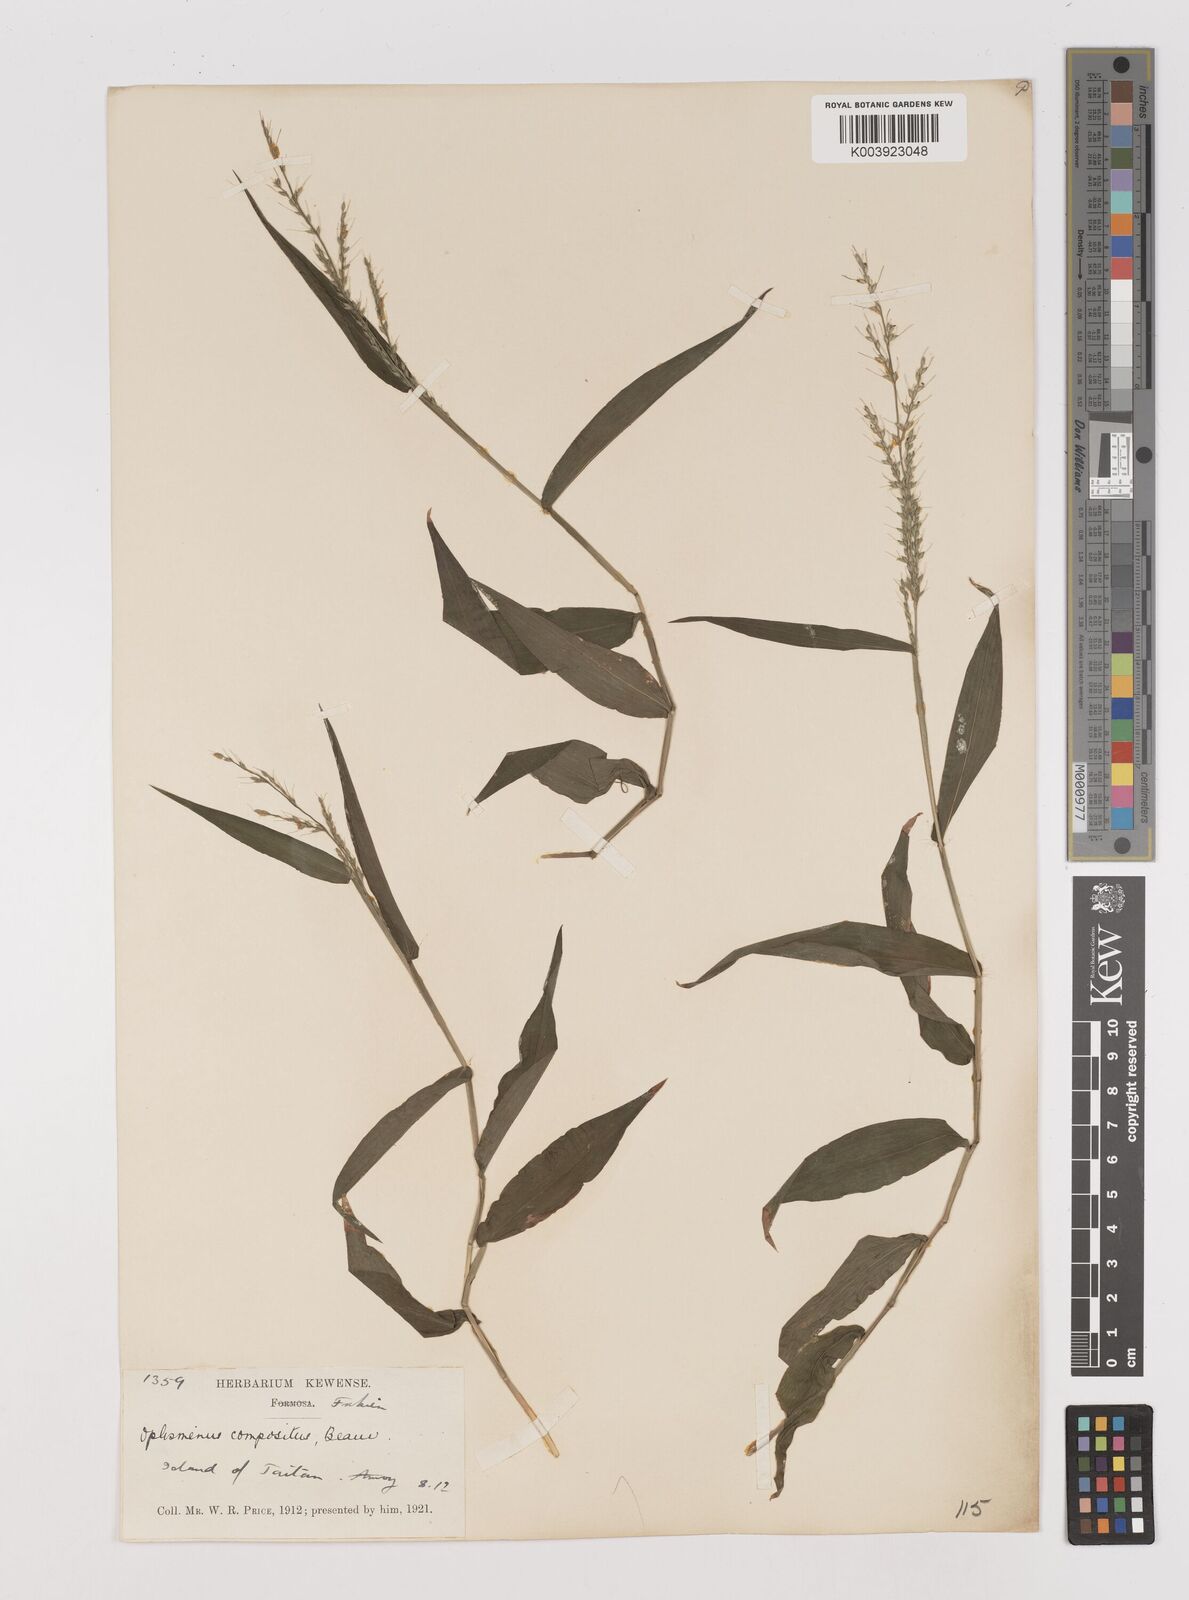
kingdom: Plantae
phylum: Tracheophyta
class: Liliopsida
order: Poales
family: Poaceae
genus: Oplismenus
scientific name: Oplismenus compositus
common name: Running mountain grass
